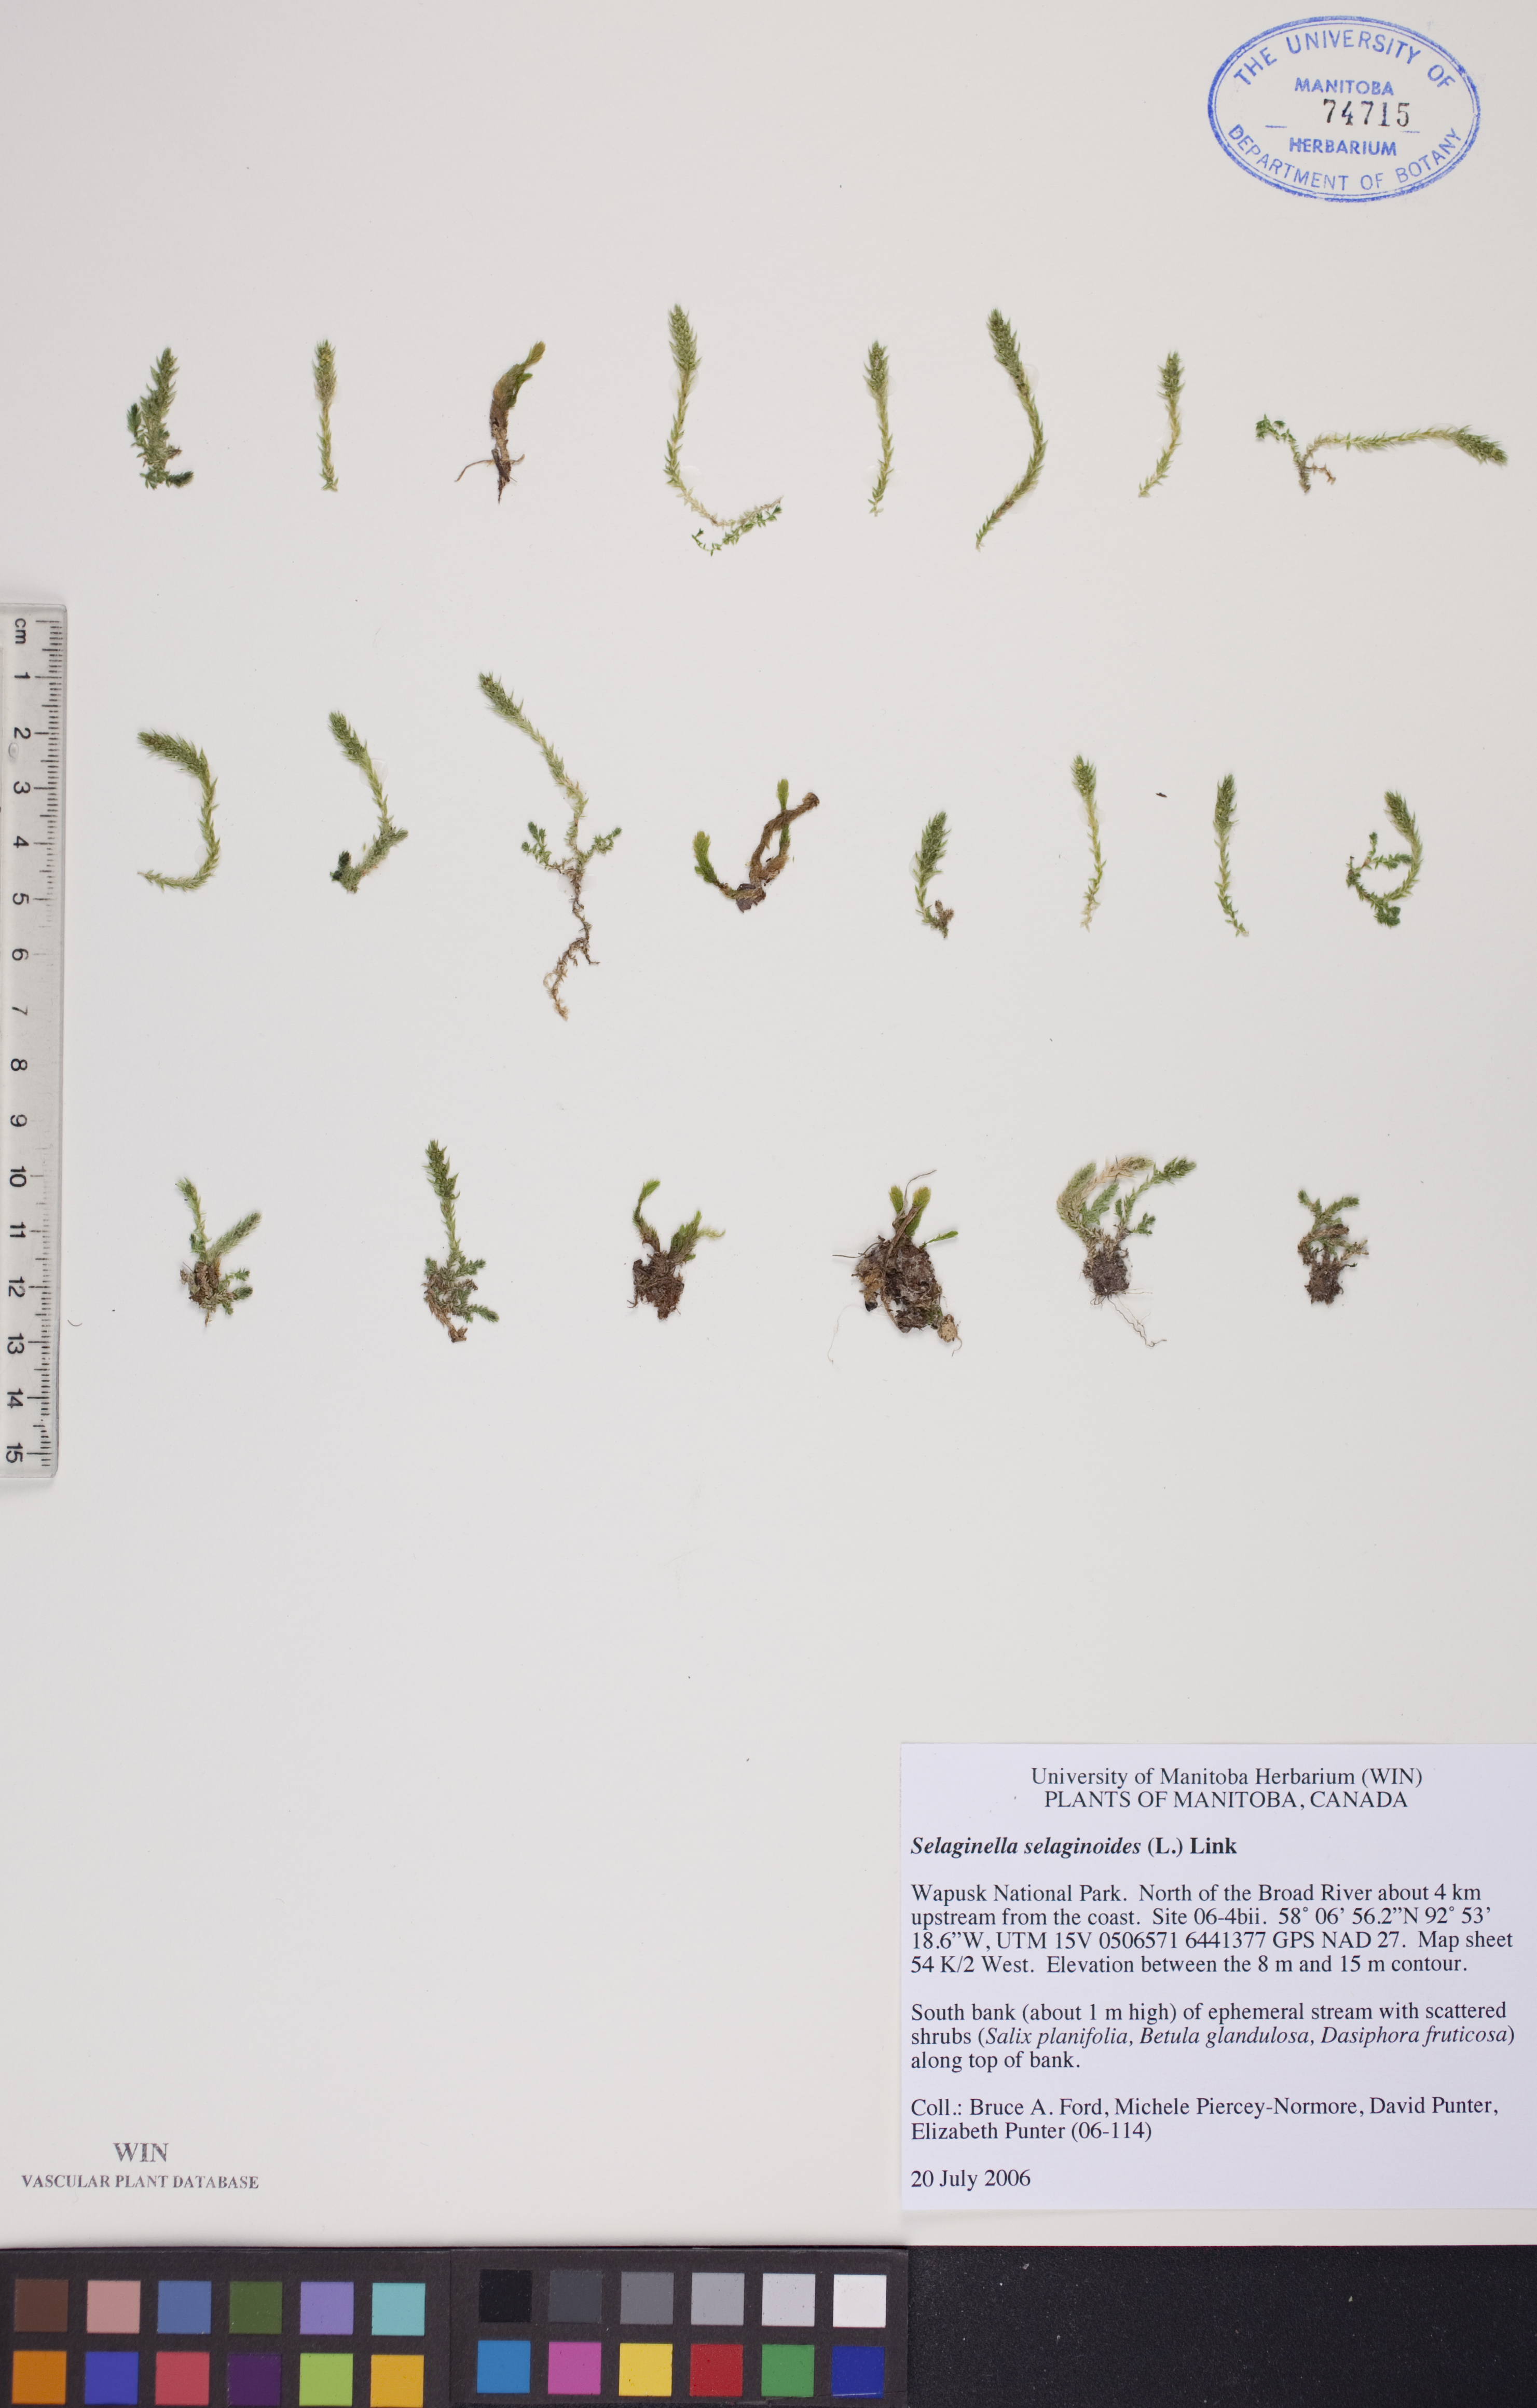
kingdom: Plantae
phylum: Tracheophyta
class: Lycopodiopsida
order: Selaginellales
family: Selaginellaceae
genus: Selaginella
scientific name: Selaginella selaginoides
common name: Prickly mountain-moss
